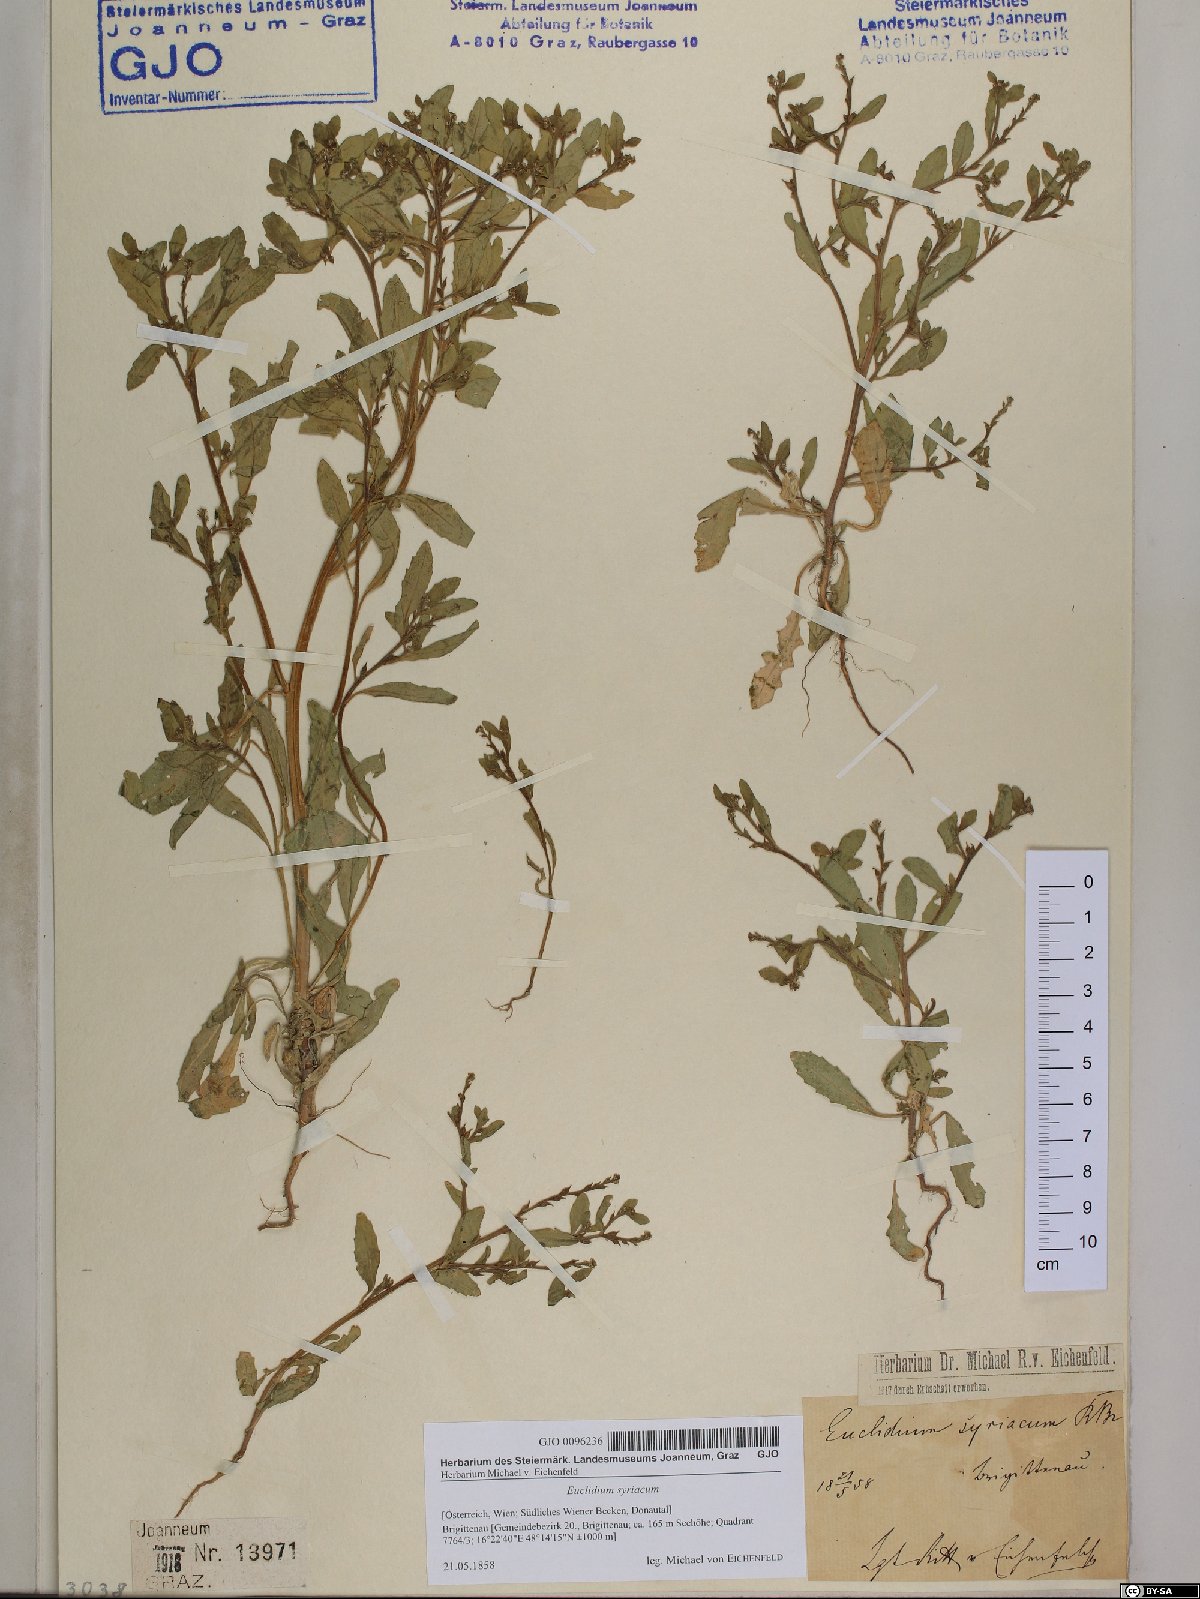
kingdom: Plantae
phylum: Tracheophyta
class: Magnoliopsida
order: Brassicales
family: Brassicaceae
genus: Euclidium
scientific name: Euclidium syriacum
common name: Syrian mustard
